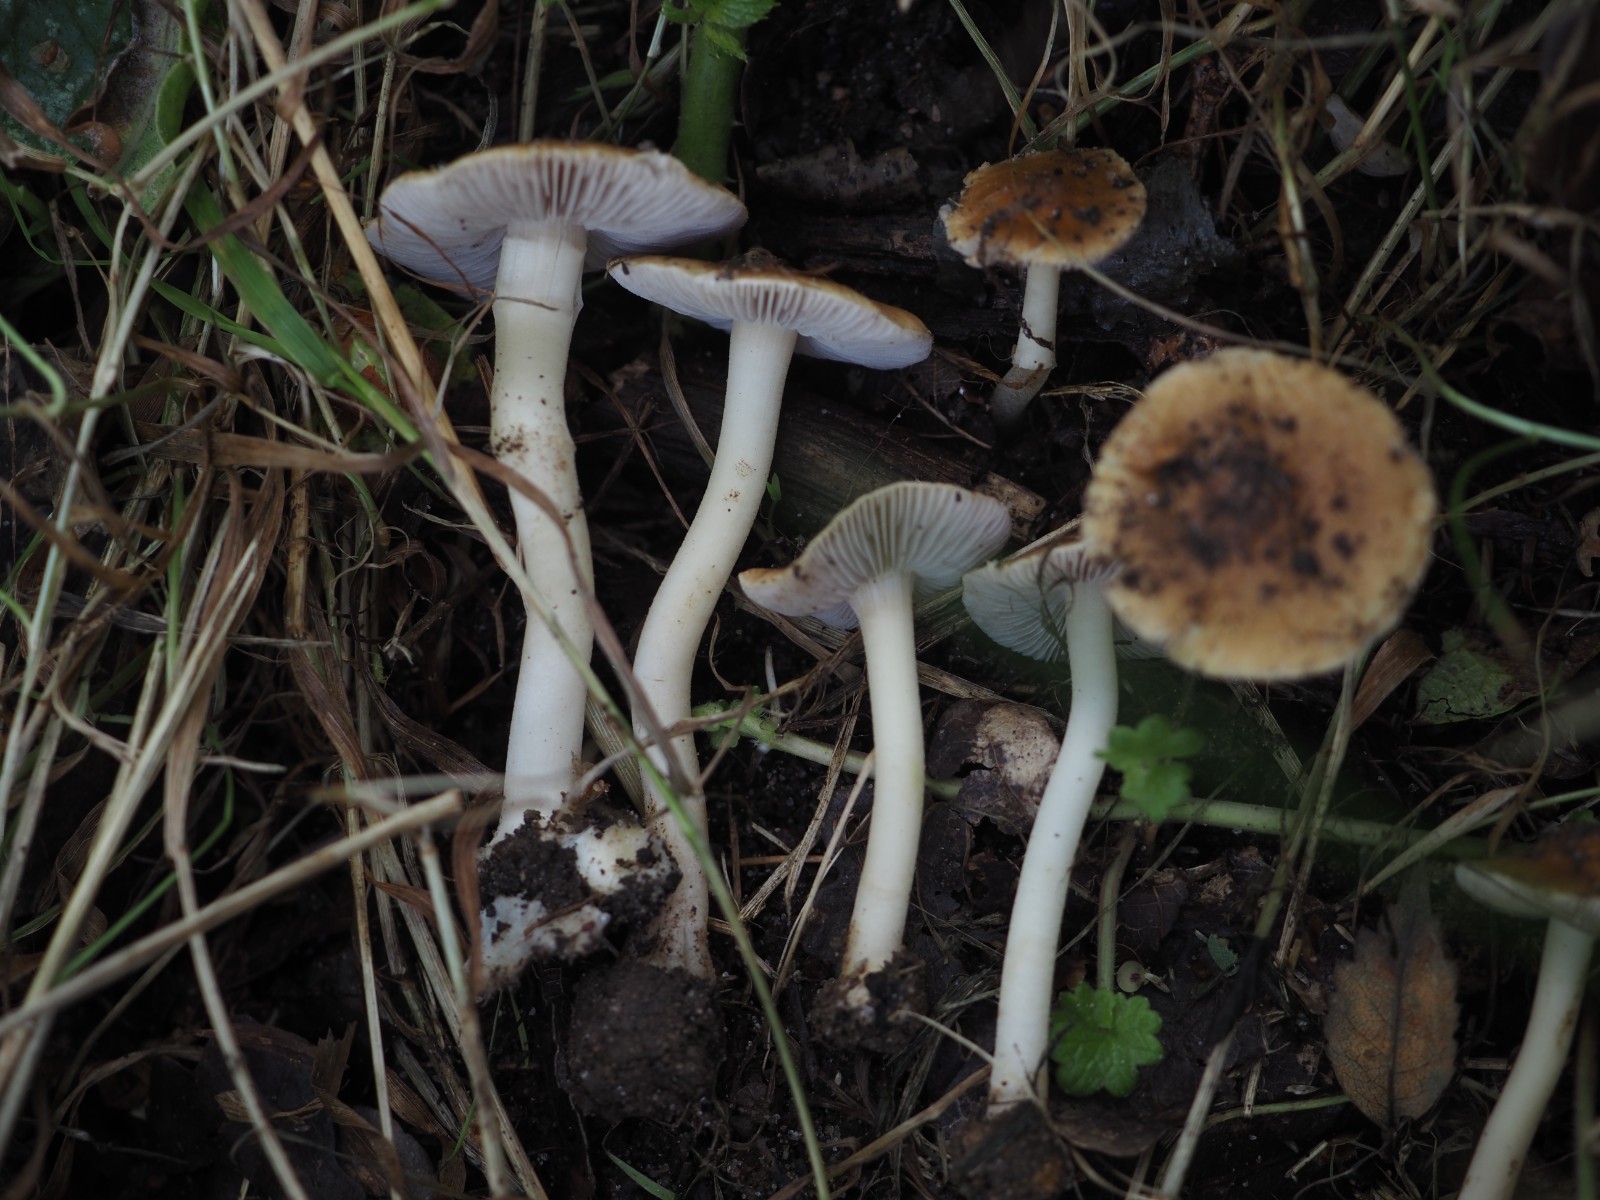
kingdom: Fungi
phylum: Basidiomycota
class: Agaricomycetes
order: Agaricales
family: Inocybaceae
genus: Inocybe
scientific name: Inocybe mixtilis
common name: randknoldet trævlhat
